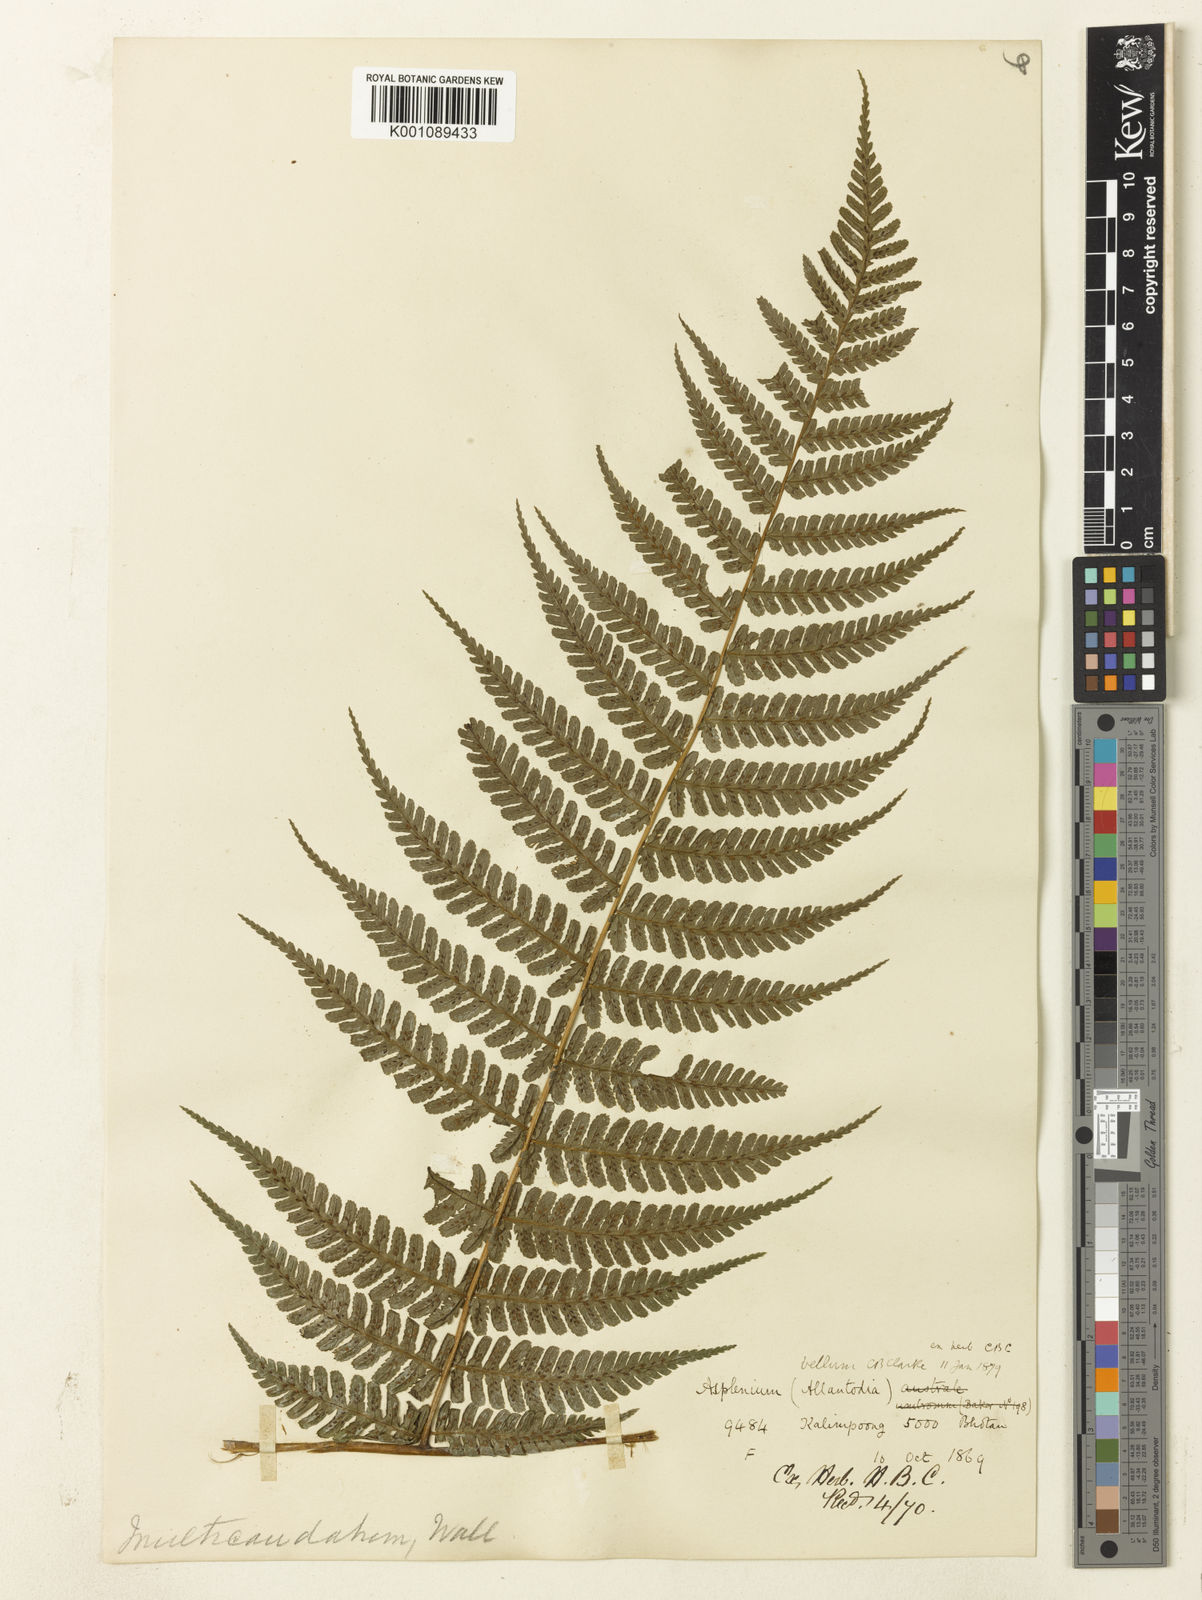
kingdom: Plantae
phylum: Tracheophyta
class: Polypodiopsida
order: Polypodiales
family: Athyriaceae
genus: Diplazium
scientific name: Diplazium bellum
